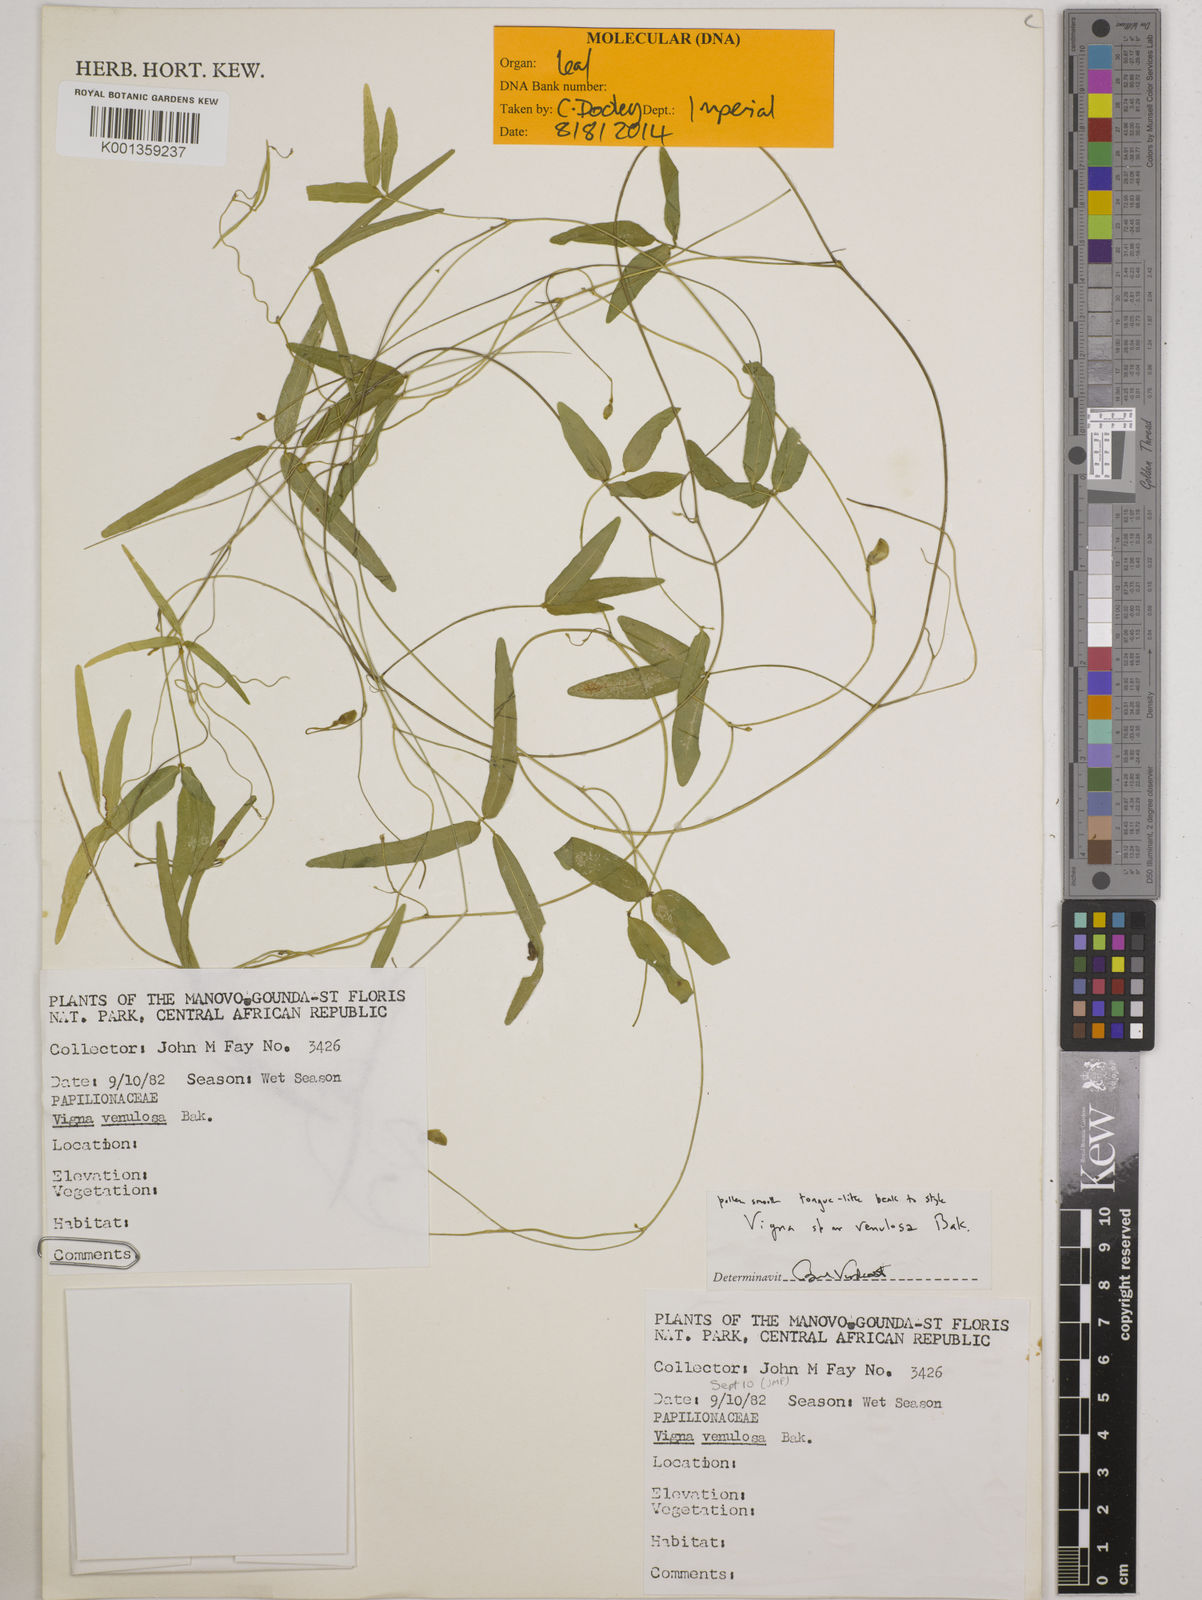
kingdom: Plantae
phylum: Tracheophyta
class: Magnoliopsida
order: Fabales
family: Fabaceae
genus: Vigna
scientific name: Vigna venulosa
